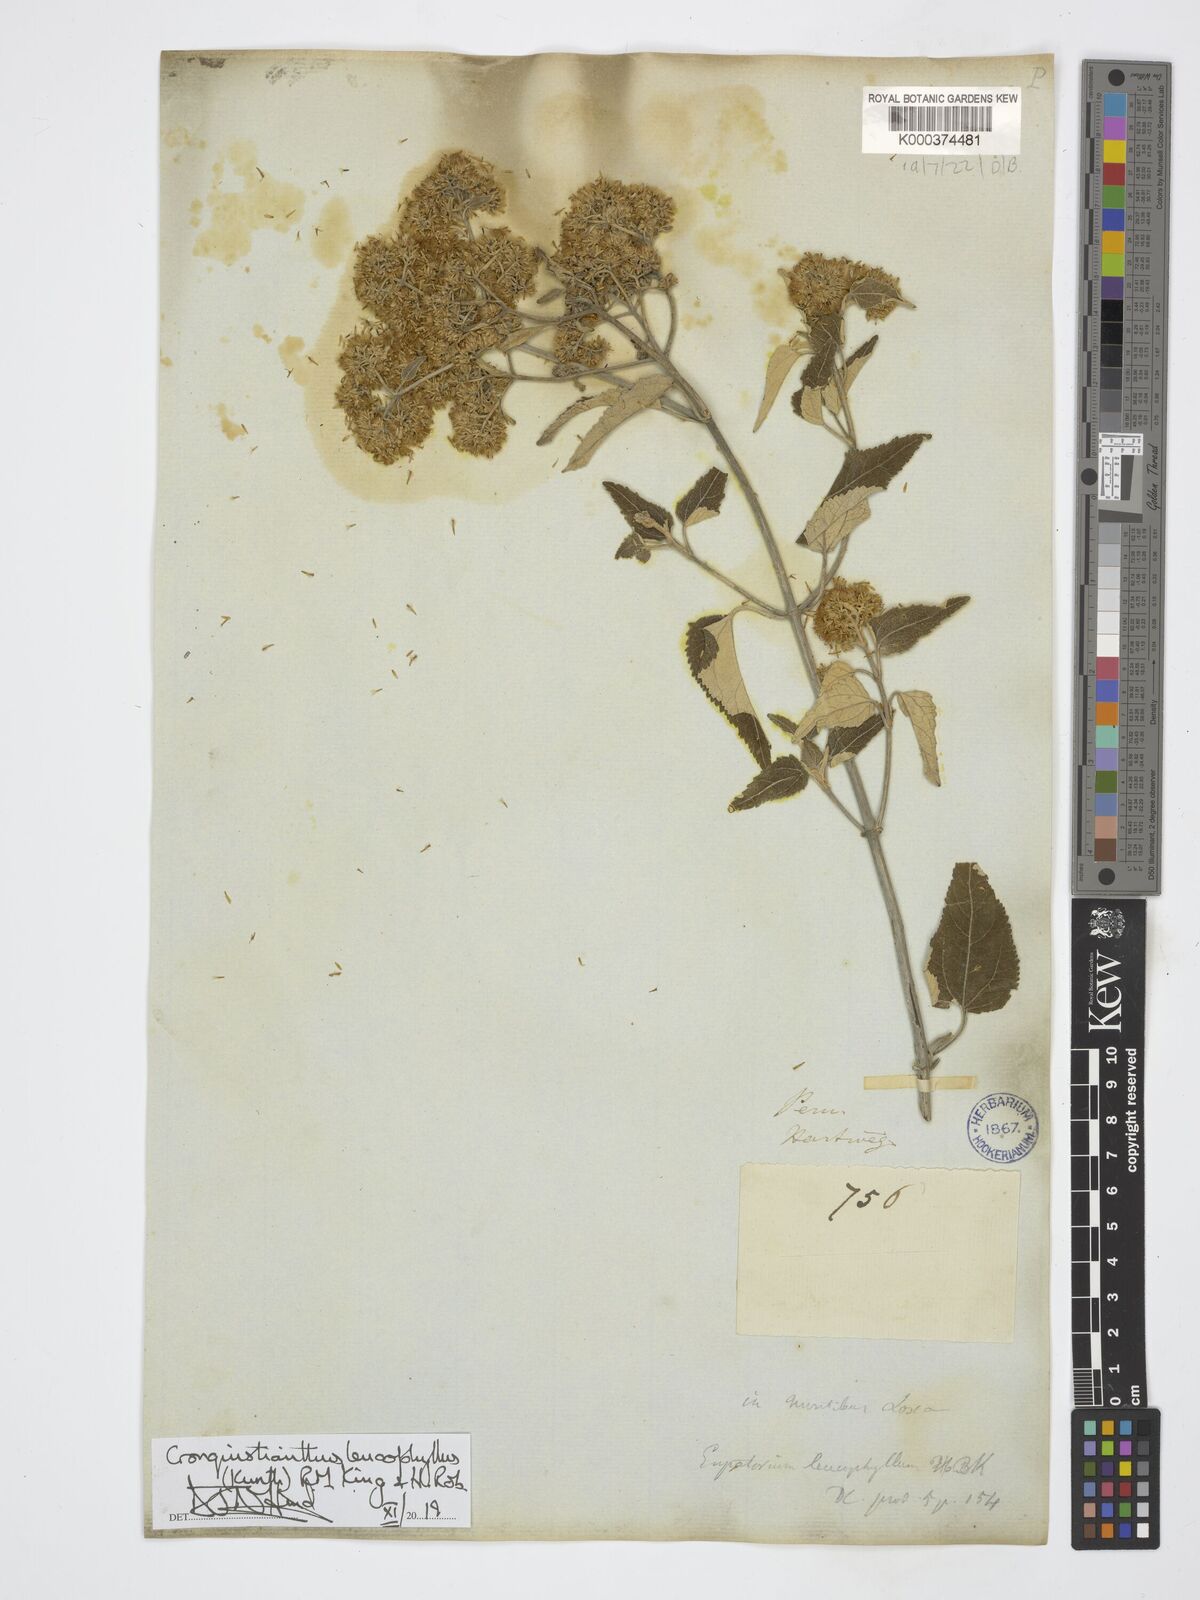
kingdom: Plantae
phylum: Tracheophyta
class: Magnoliopsida
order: Asterales
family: Asteraceae
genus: Cronquistianthus
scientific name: Cronquistianthus leucophyllus
